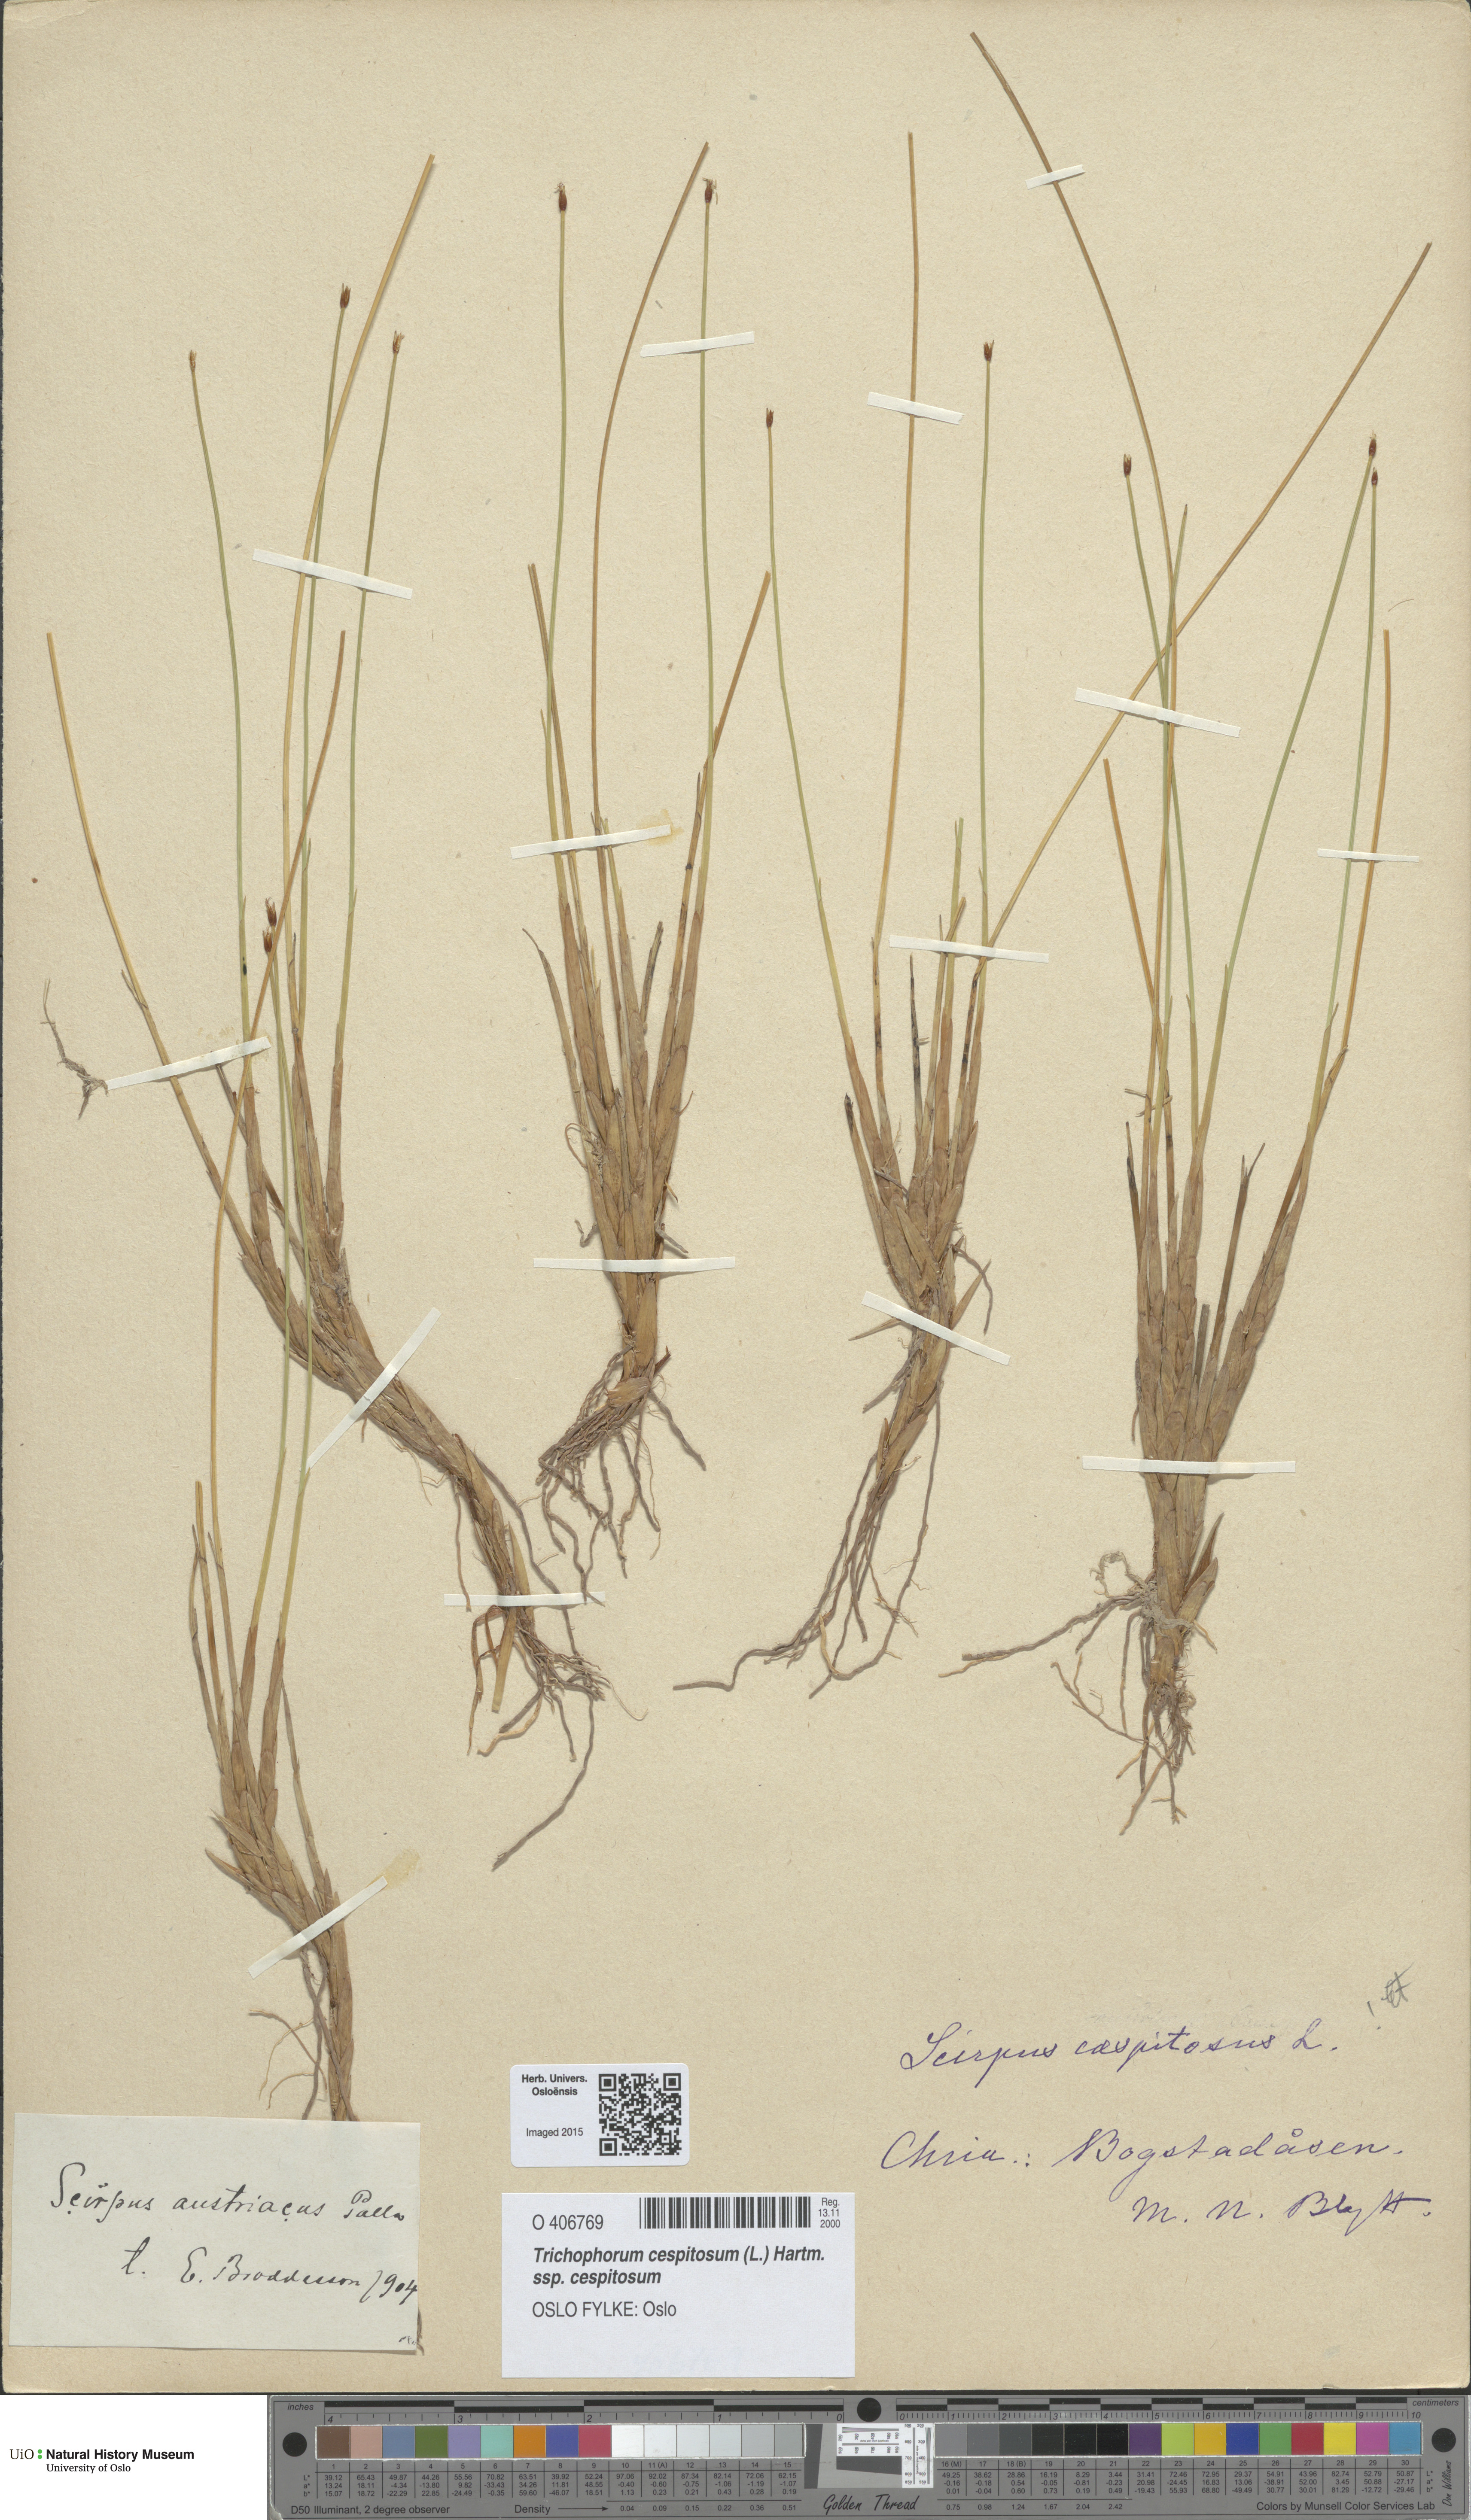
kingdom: Plantae
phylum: Tracheophyta
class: Liliopsida
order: Poales
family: Cyperaceae
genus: Trichophorum
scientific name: Trichophorum cespitosum
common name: Cespitose bulrush
